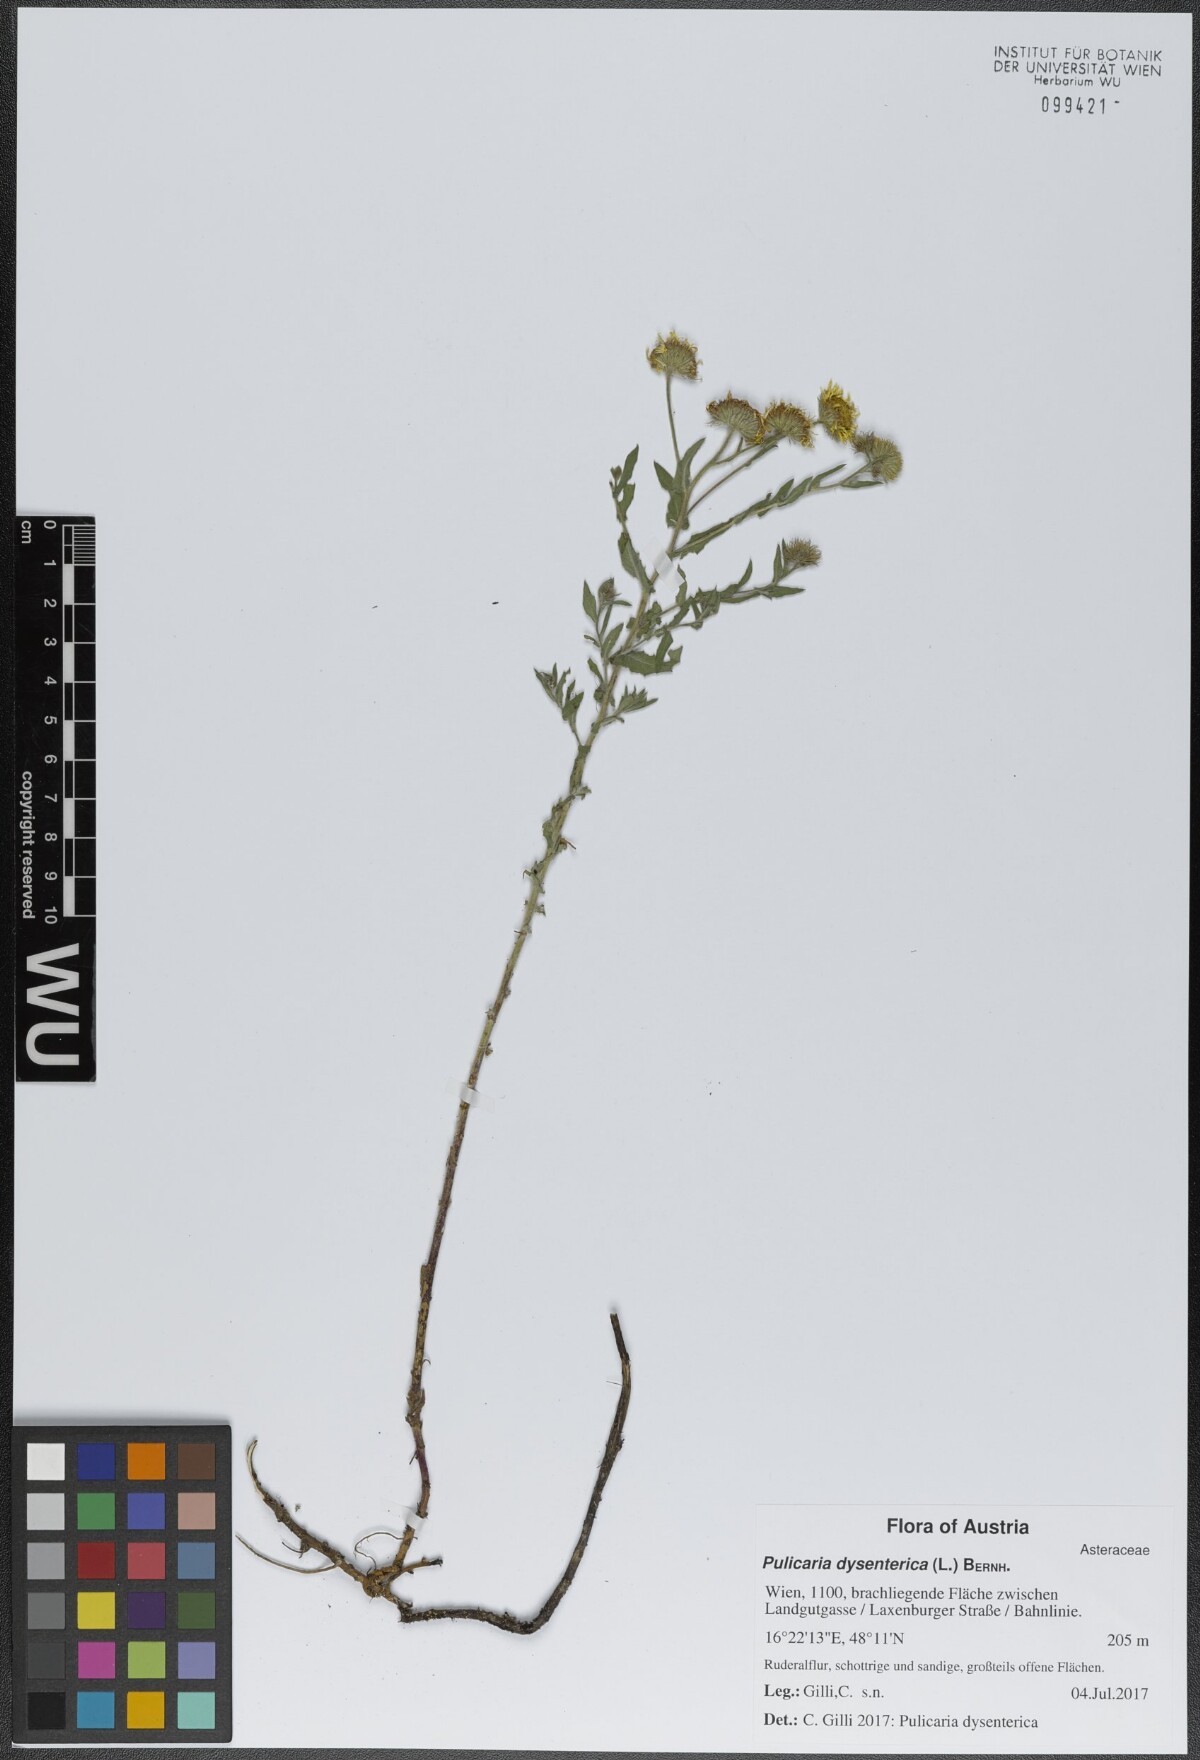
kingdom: Plantae
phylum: Tracheophyta
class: Magnoliopsida
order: Asterales
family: Asteraceae
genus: Pulicaria
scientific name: Pulicaria dysenterica
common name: Common fleabane
